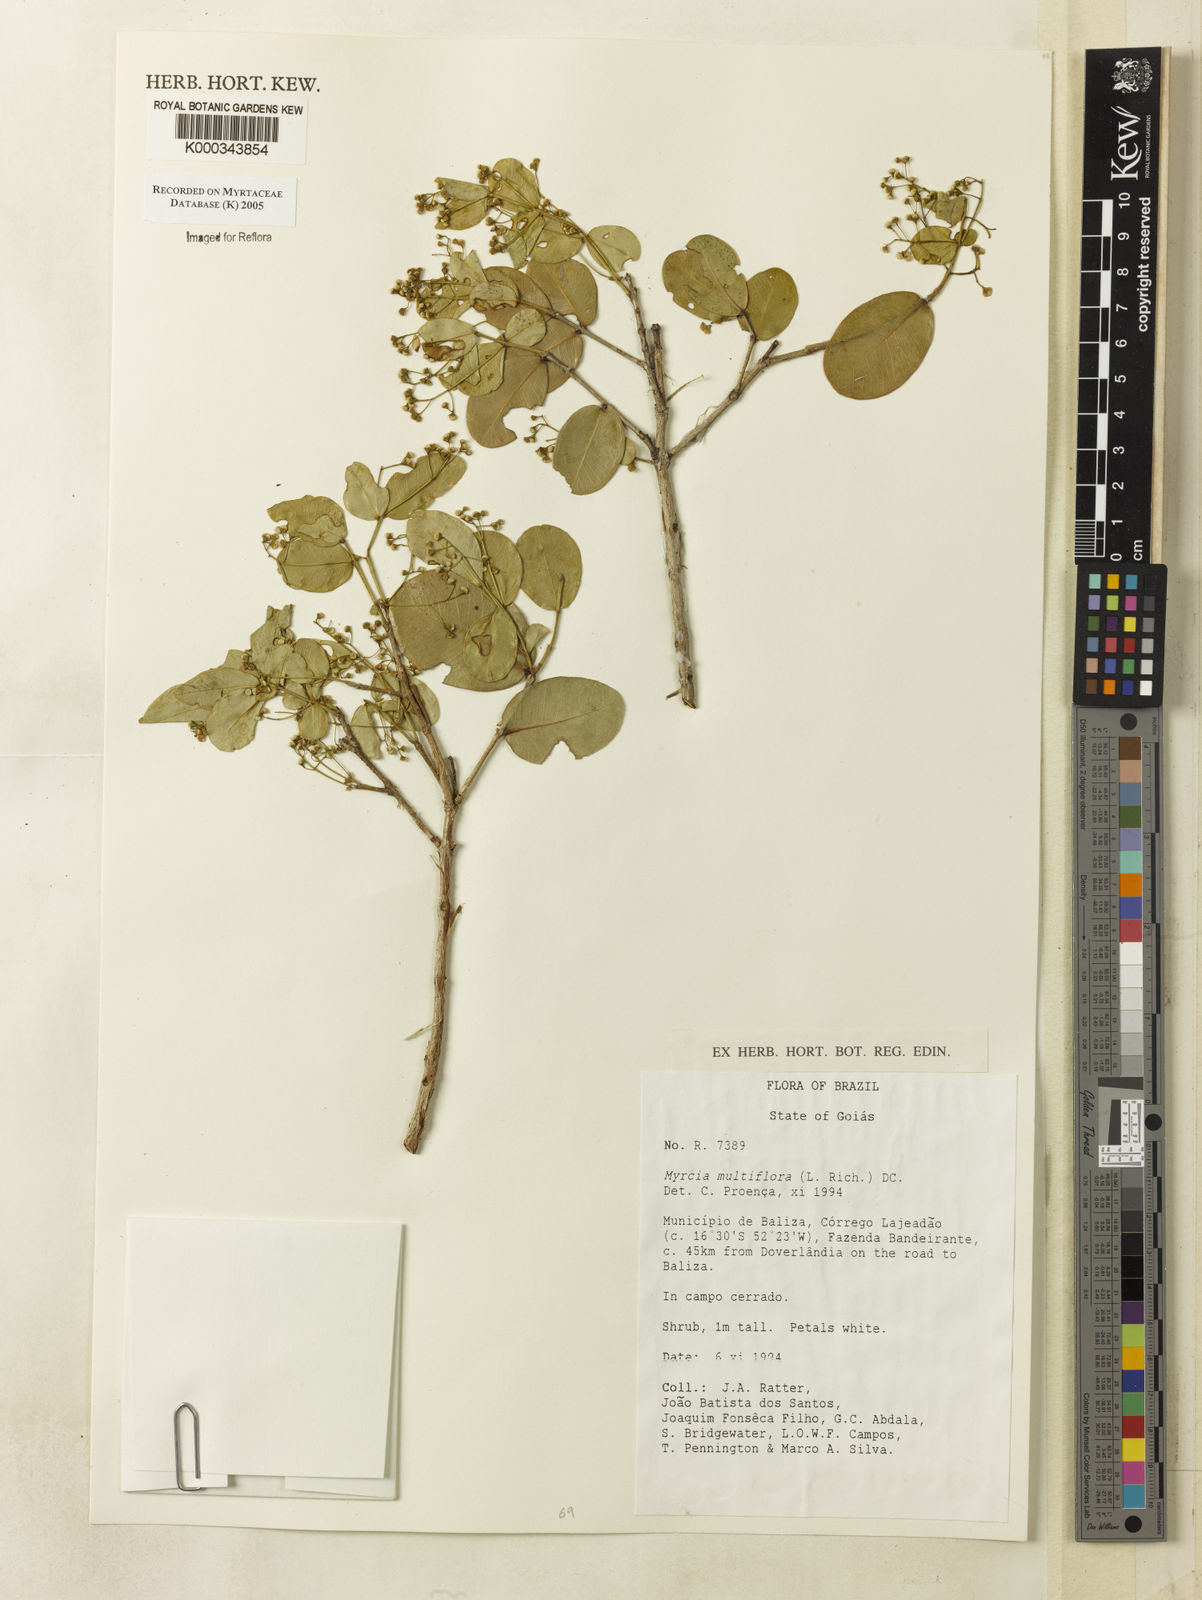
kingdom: Plantae
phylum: Tracheophyta
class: Magnoliopsida
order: Myrtales
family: Myrtaceae
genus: Myrcia
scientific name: Myrcia multiflora
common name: Pedra hume
